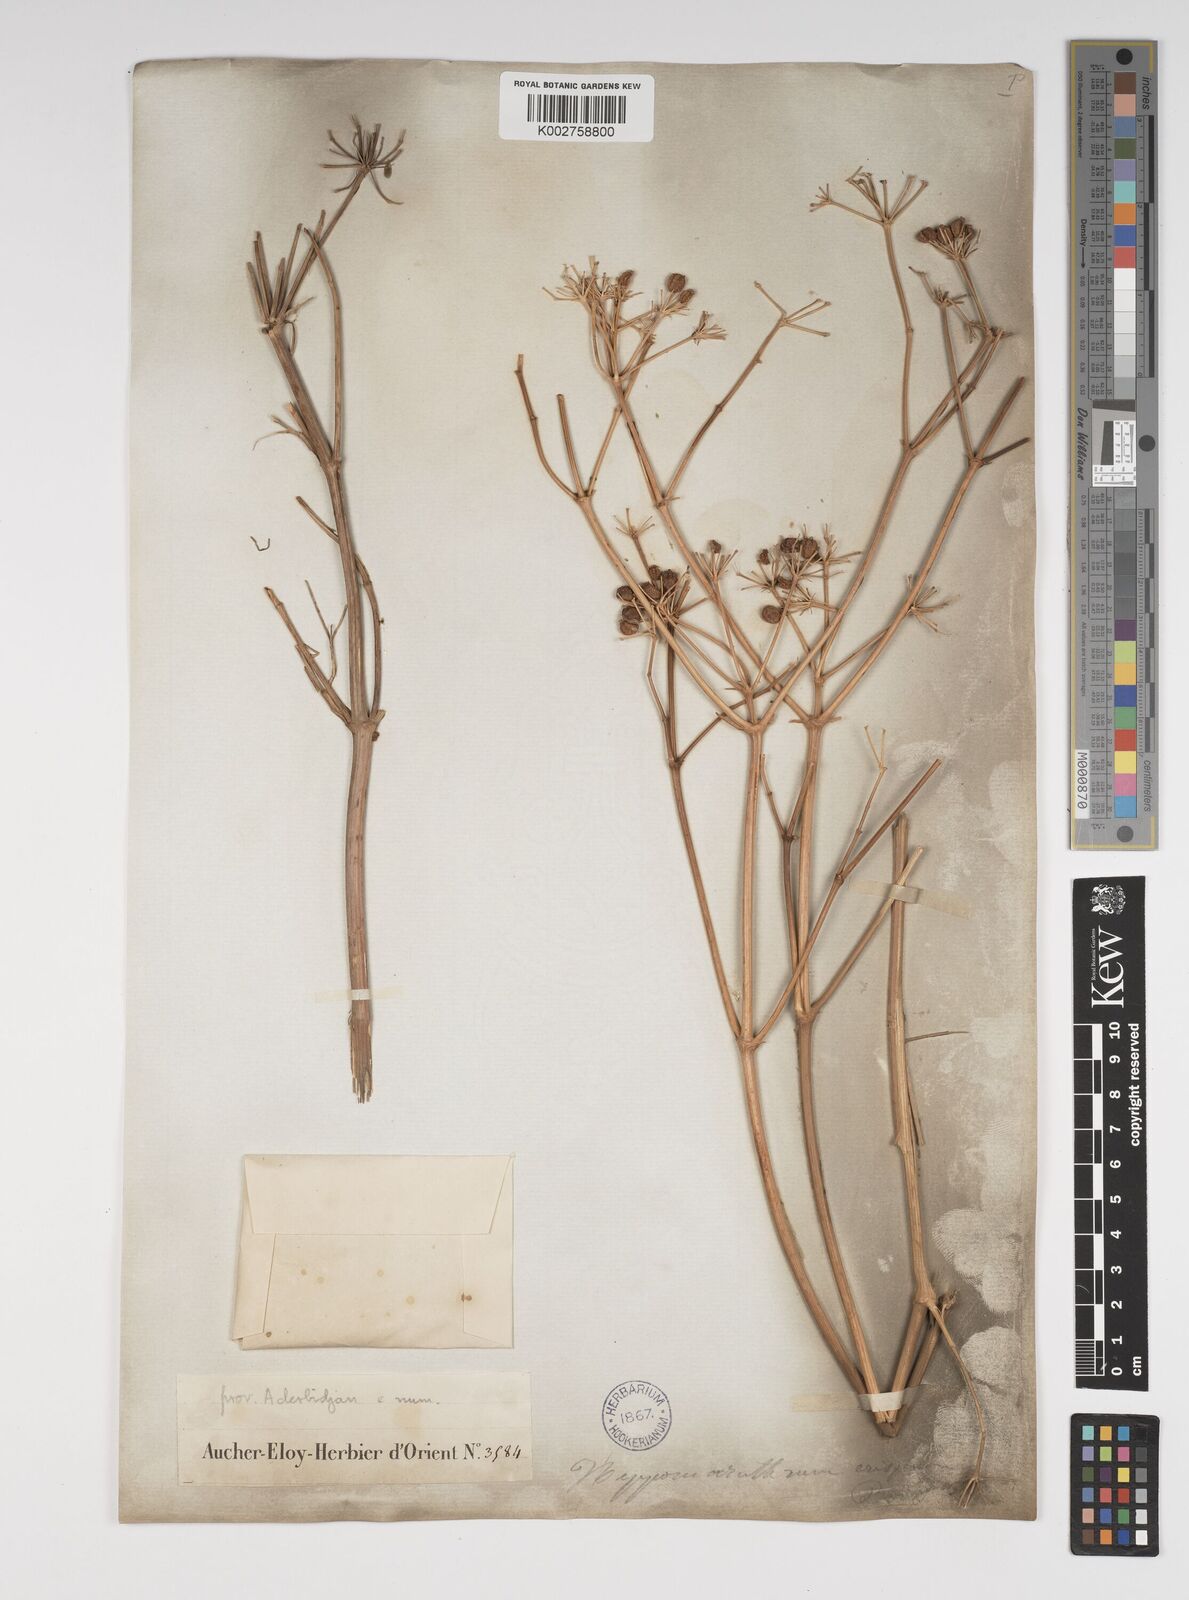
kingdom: Plantae
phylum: Tracheophyta
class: Magnoliopsida
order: Apiales
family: Apiaceae
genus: Bilacunaria
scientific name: Bilacunaria microcarpa
